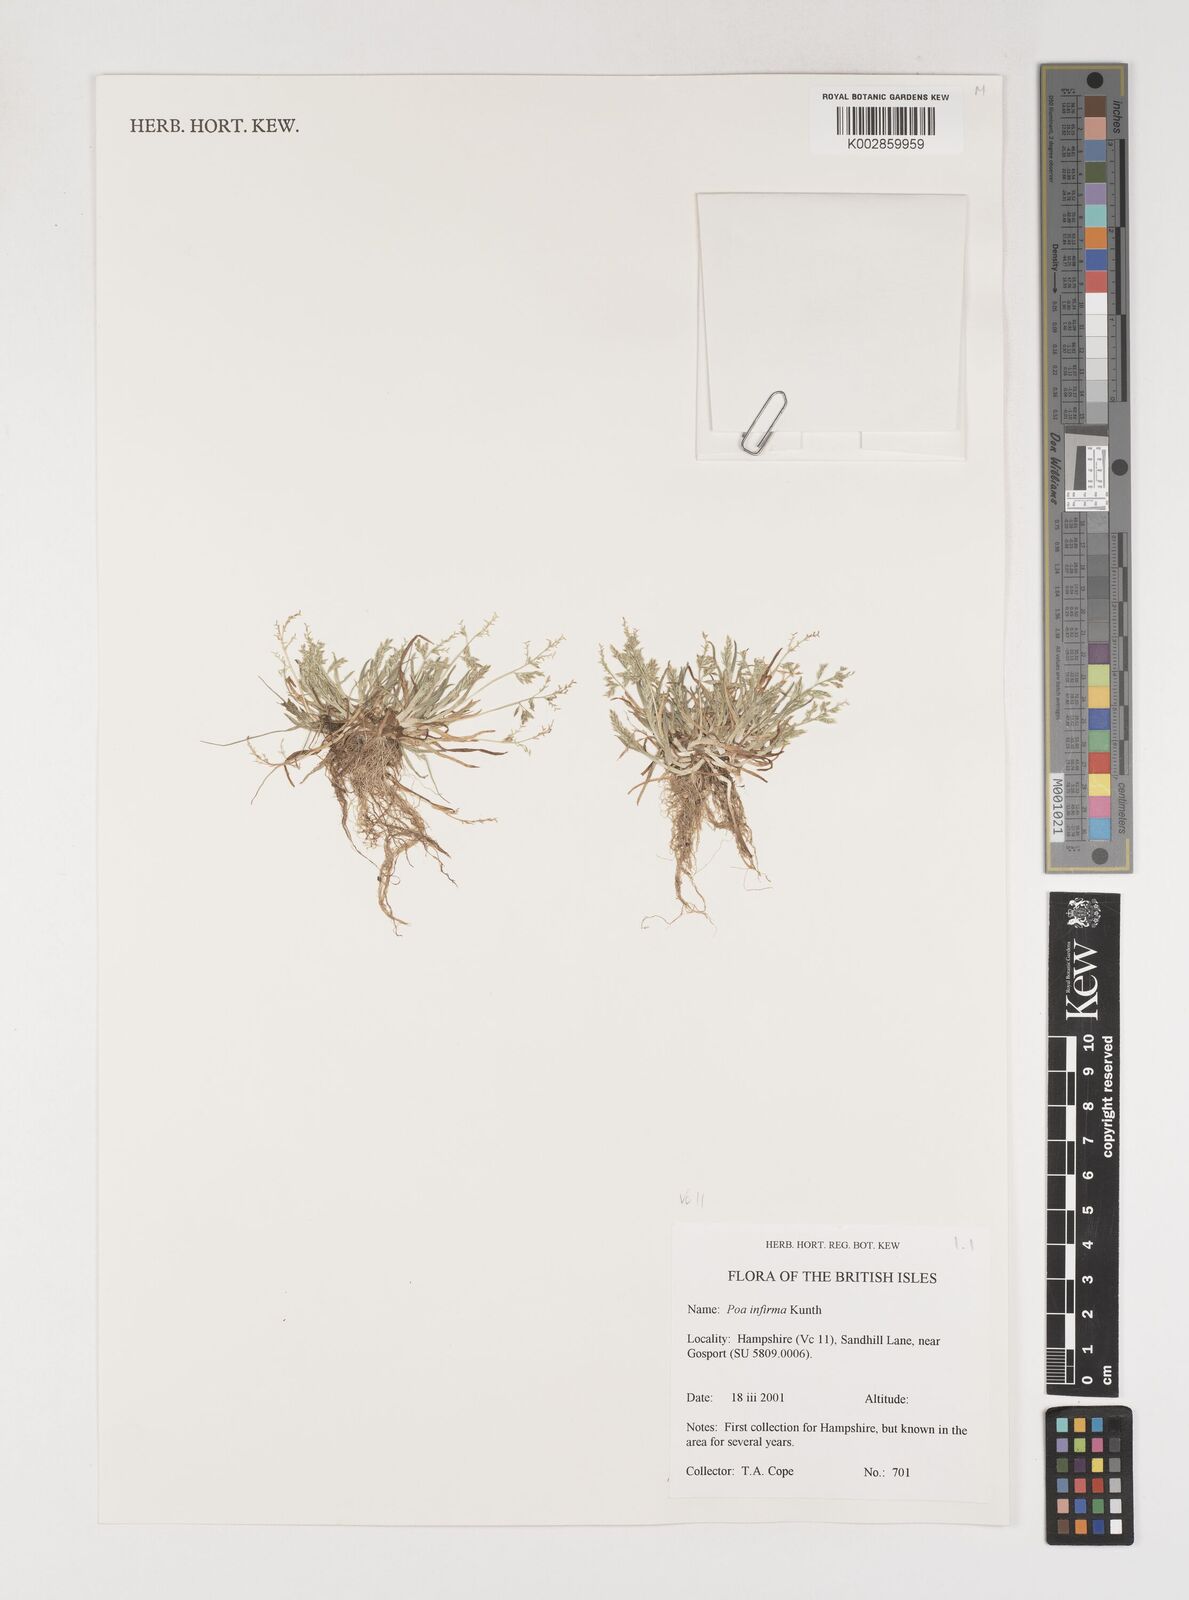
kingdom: Plantae
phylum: Tracheophyta
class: Liliopsida
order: Poales
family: Poaceae
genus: Poa
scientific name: Poa infirma
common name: Weak bluegrass
